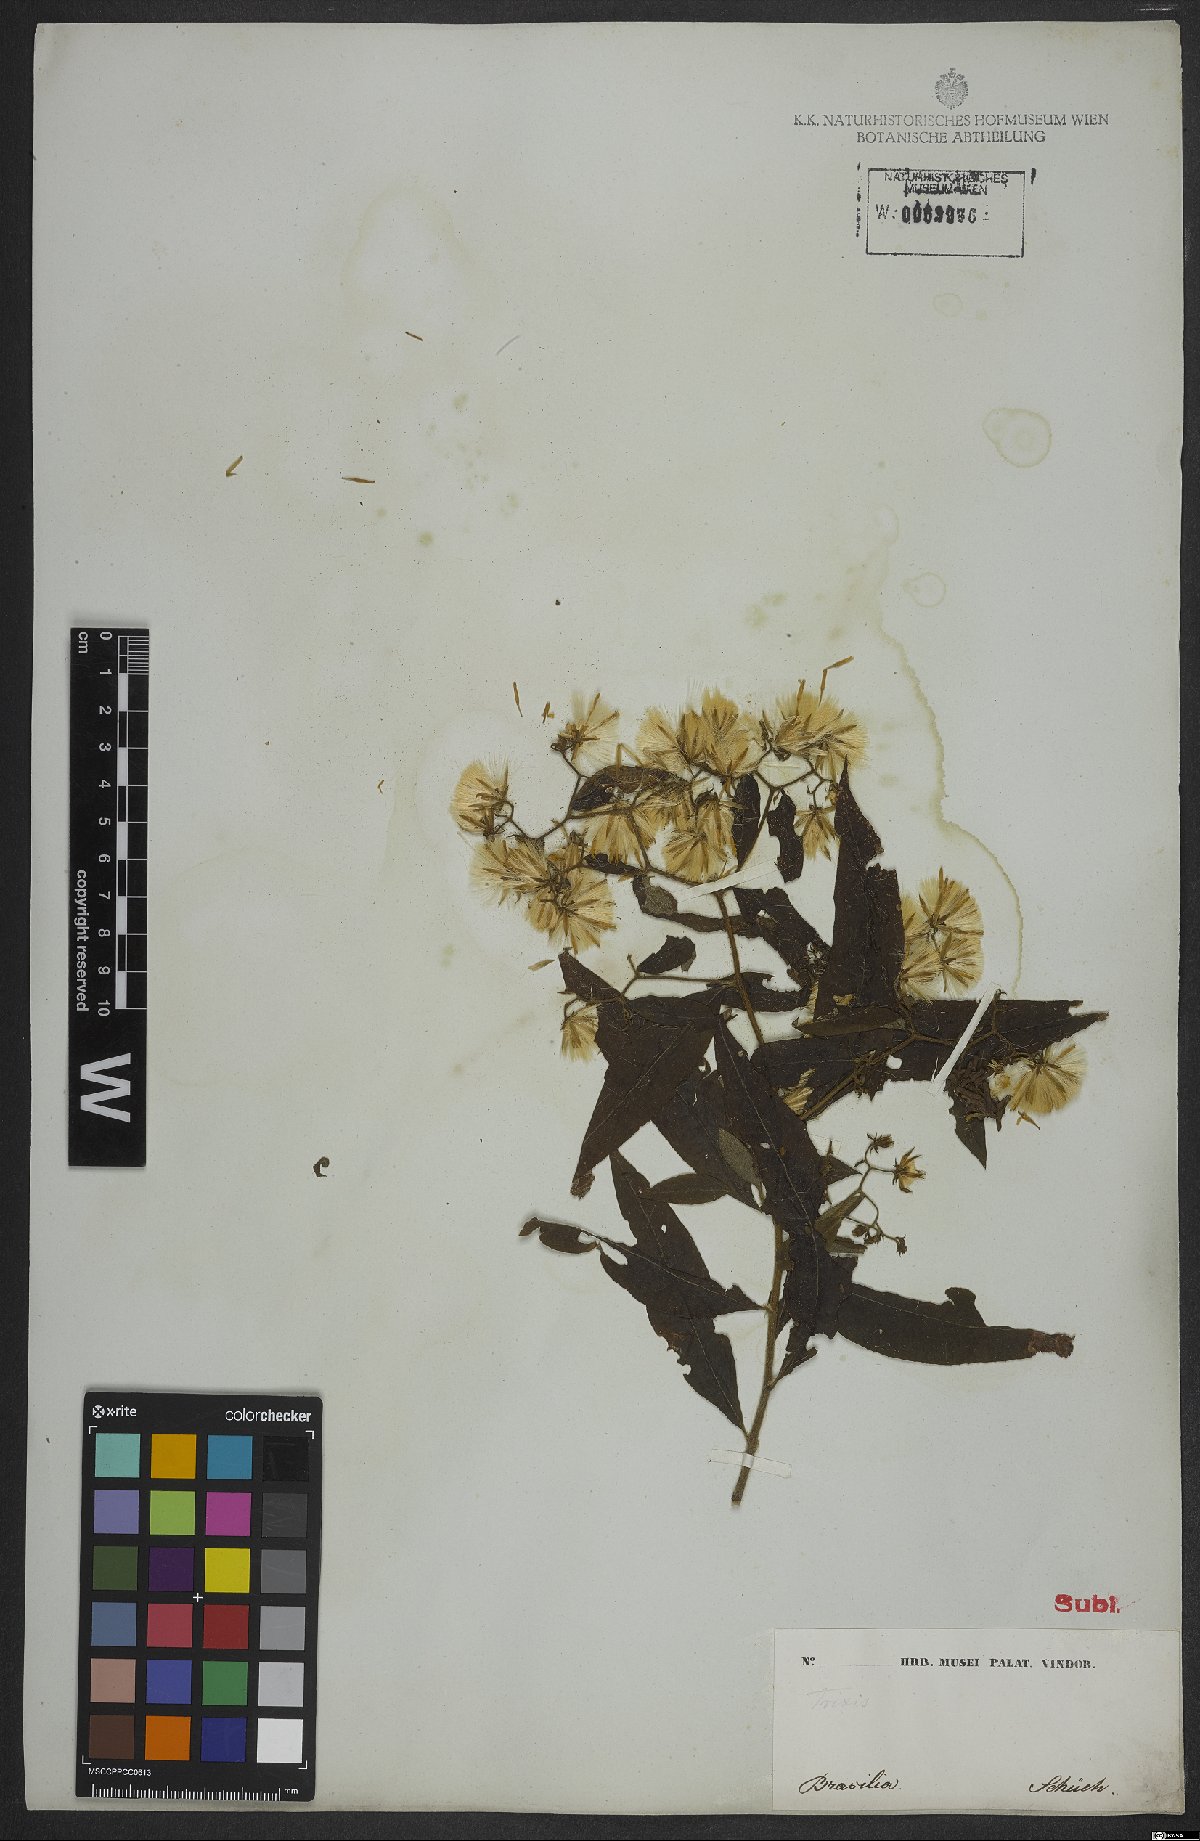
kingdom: Plantae
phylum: Tracheophyta
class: Magnoliopsida
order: Asterales
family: Asteraceae
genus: Trixis
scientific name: Trixis divaricata
